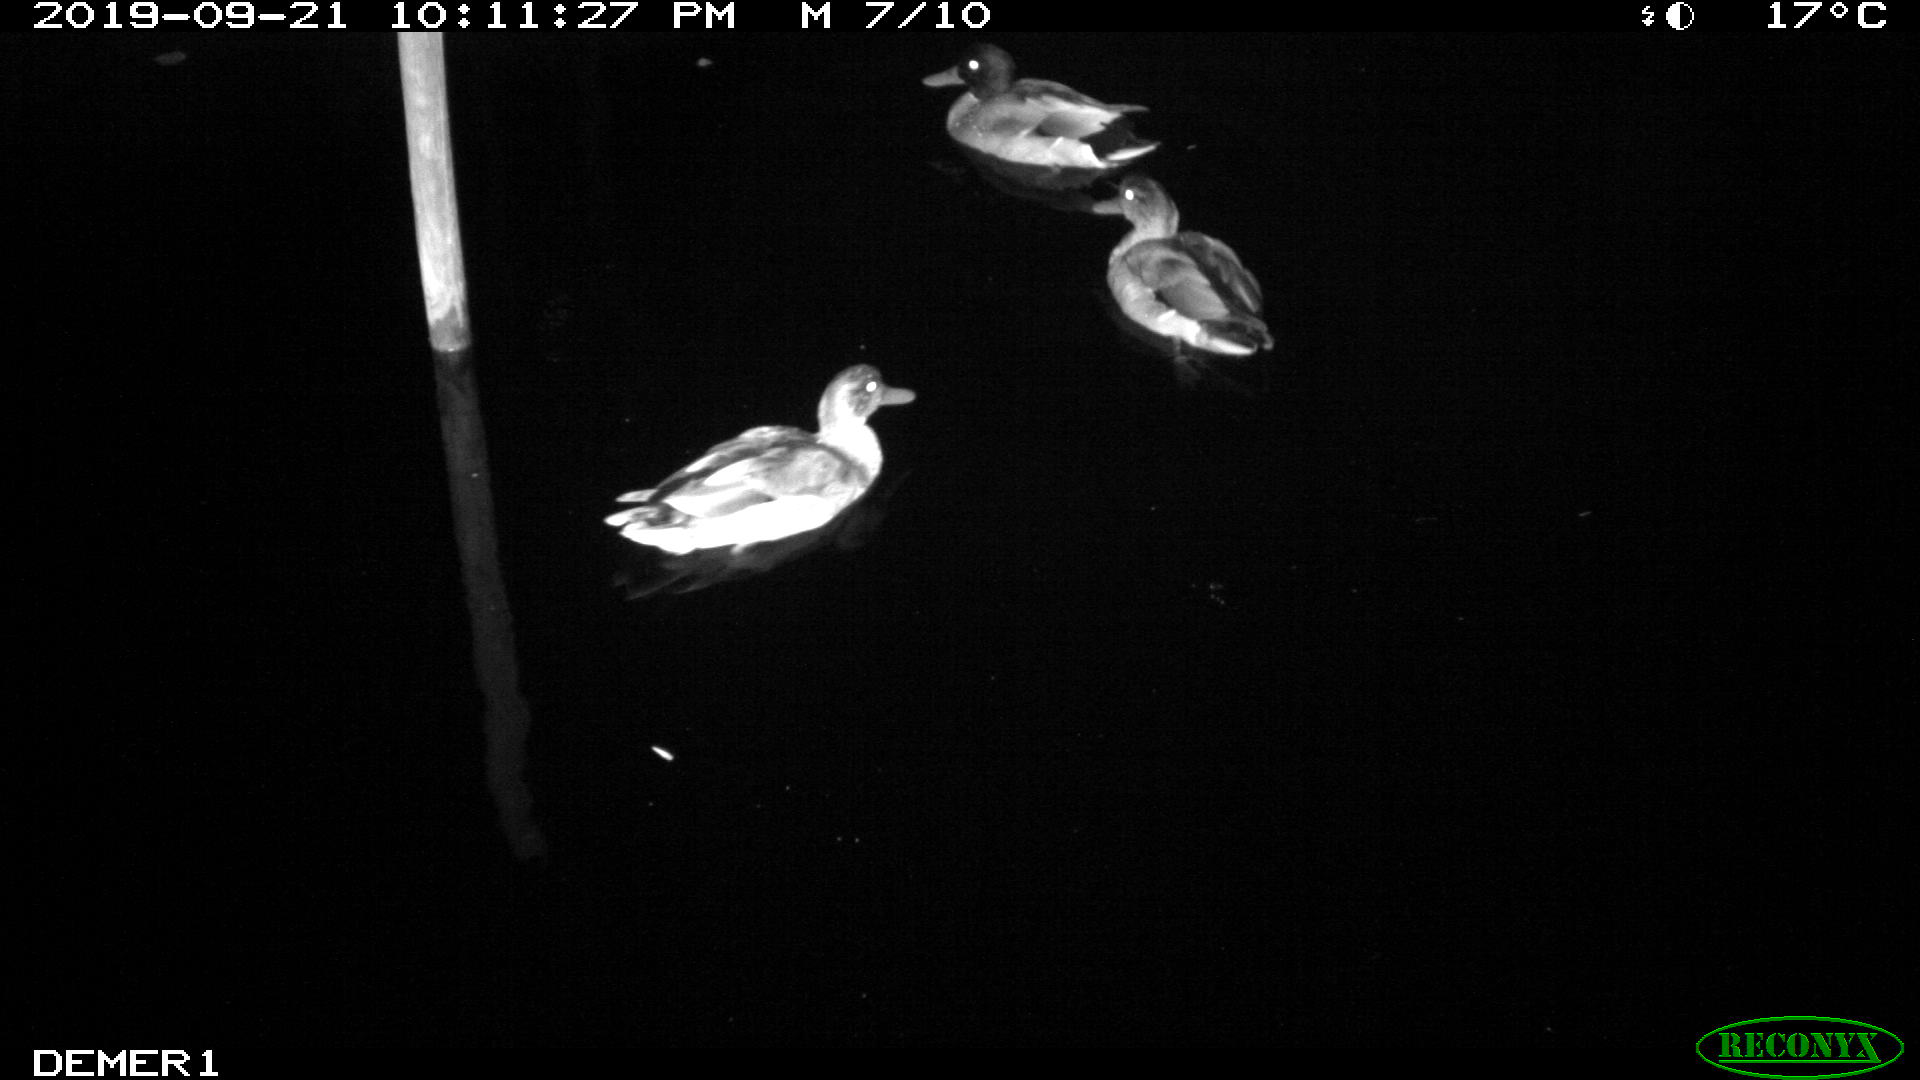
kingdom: Animalia
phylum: Chordata
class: Aves
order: Anseriformes
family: Anatidae
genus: Anas
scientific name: Anas platyrhynchos
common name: Mallard
